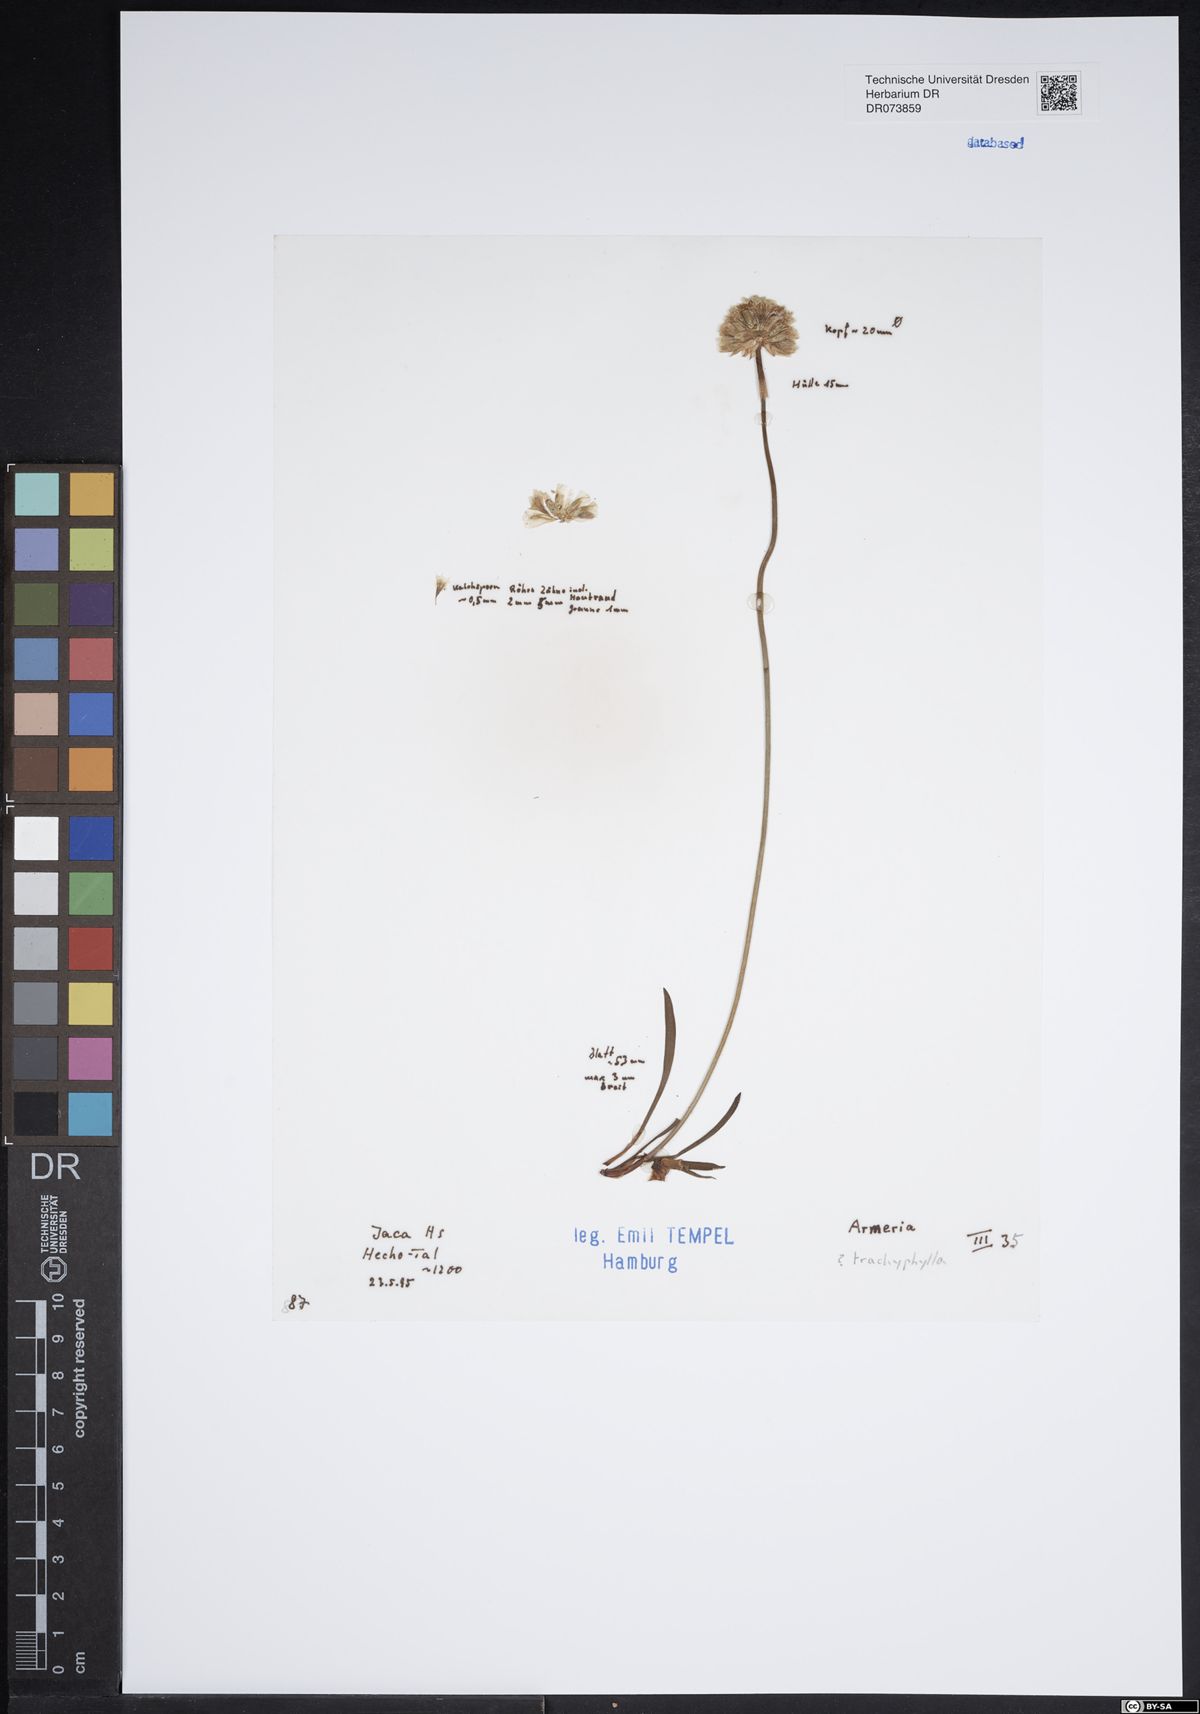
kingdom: Plantae
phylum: Tracheophyta
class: Magnoliopsida
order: Caryophyllales
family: Plumbaginaceae
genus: Armeria
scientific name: Armeria trachyphylla
